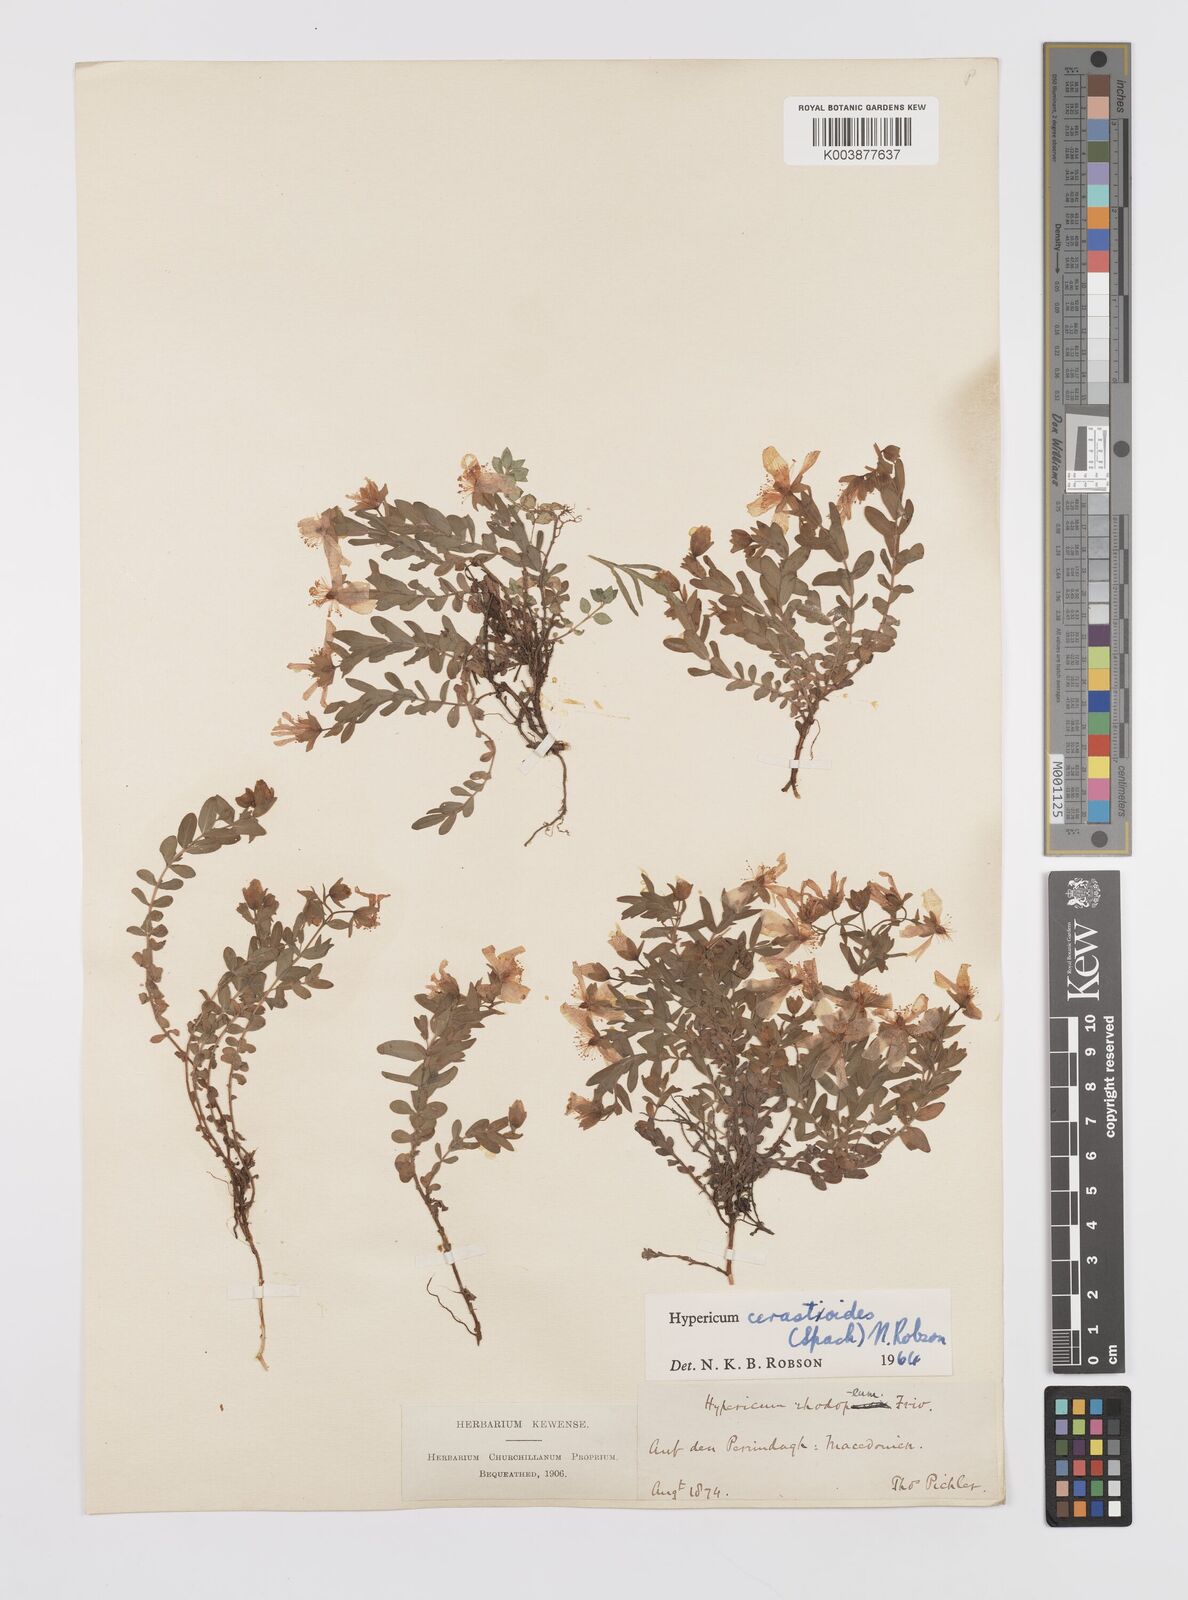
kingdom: Plantae
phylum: Tracheophyta
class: Magnoliopsida
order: Malpighiales
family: Hypericaceae
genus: Hypericum
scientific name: Hypericum cerastoides
